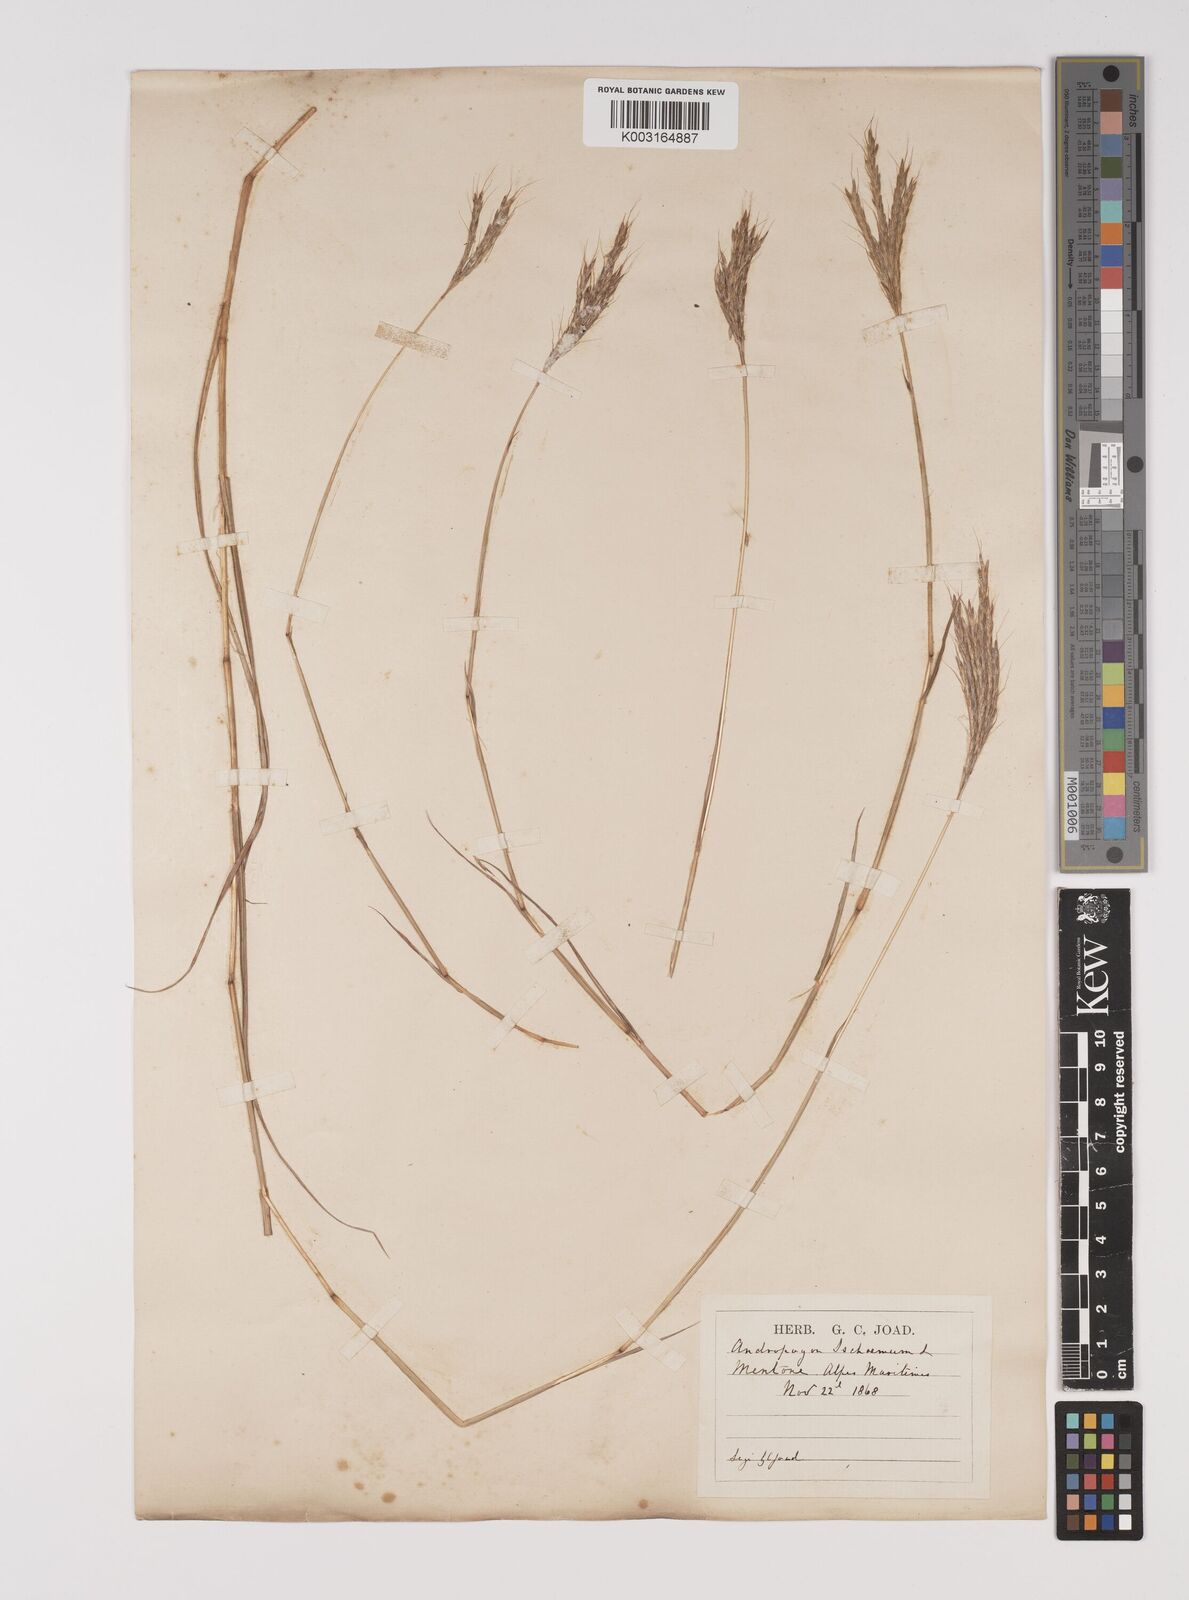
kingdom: Plantae
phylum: Tracheophyta
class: Liliopsida
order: Poales
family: Poaceae
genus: Bothriochloa
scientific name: Bothriochloa ischaemum
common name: Yellow bluestem
